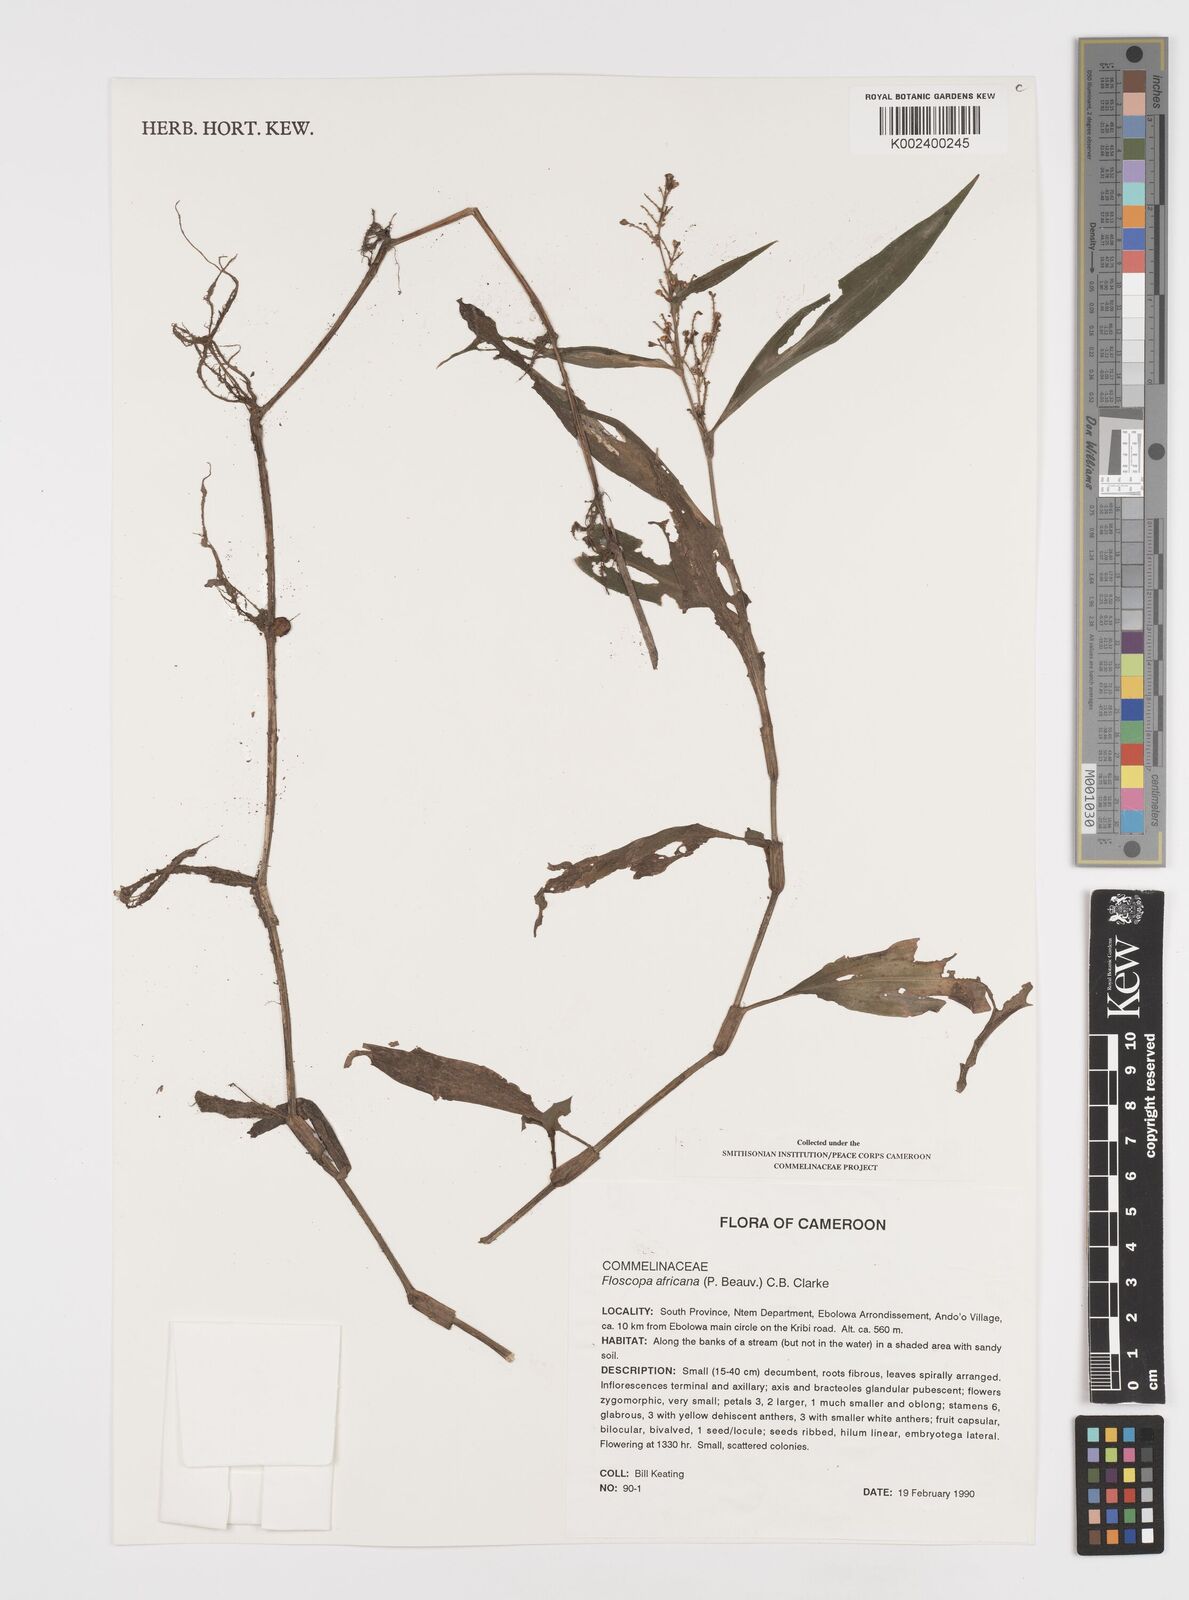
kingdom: Plantae
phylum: Tracheophyta
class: Liliopsida
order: Commelinales
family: Commelinaceae
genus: Floscopa
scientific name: Floscopa africana
